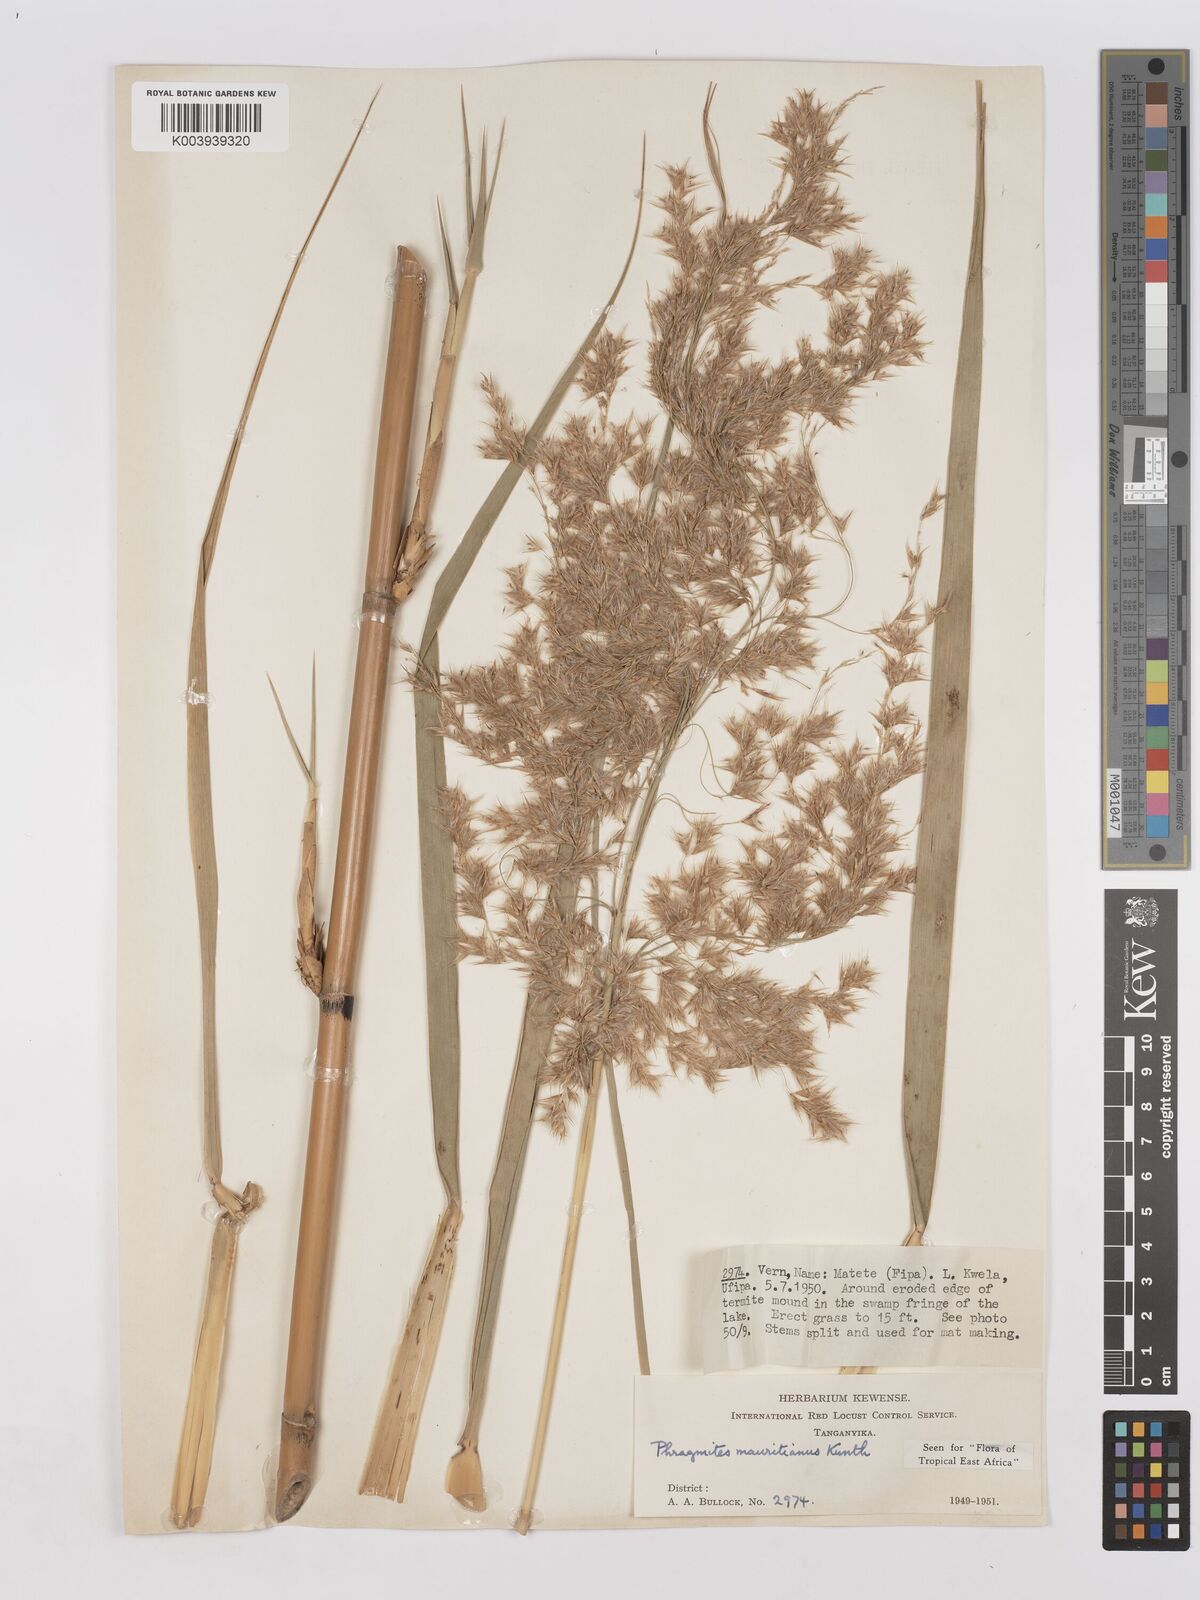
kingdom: Plantae
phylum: Tracheophyta
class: Liliopsida
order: Poales
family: Poaceae
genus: Phragmites
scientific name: Phragmites mauritianus
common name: Reed grass
